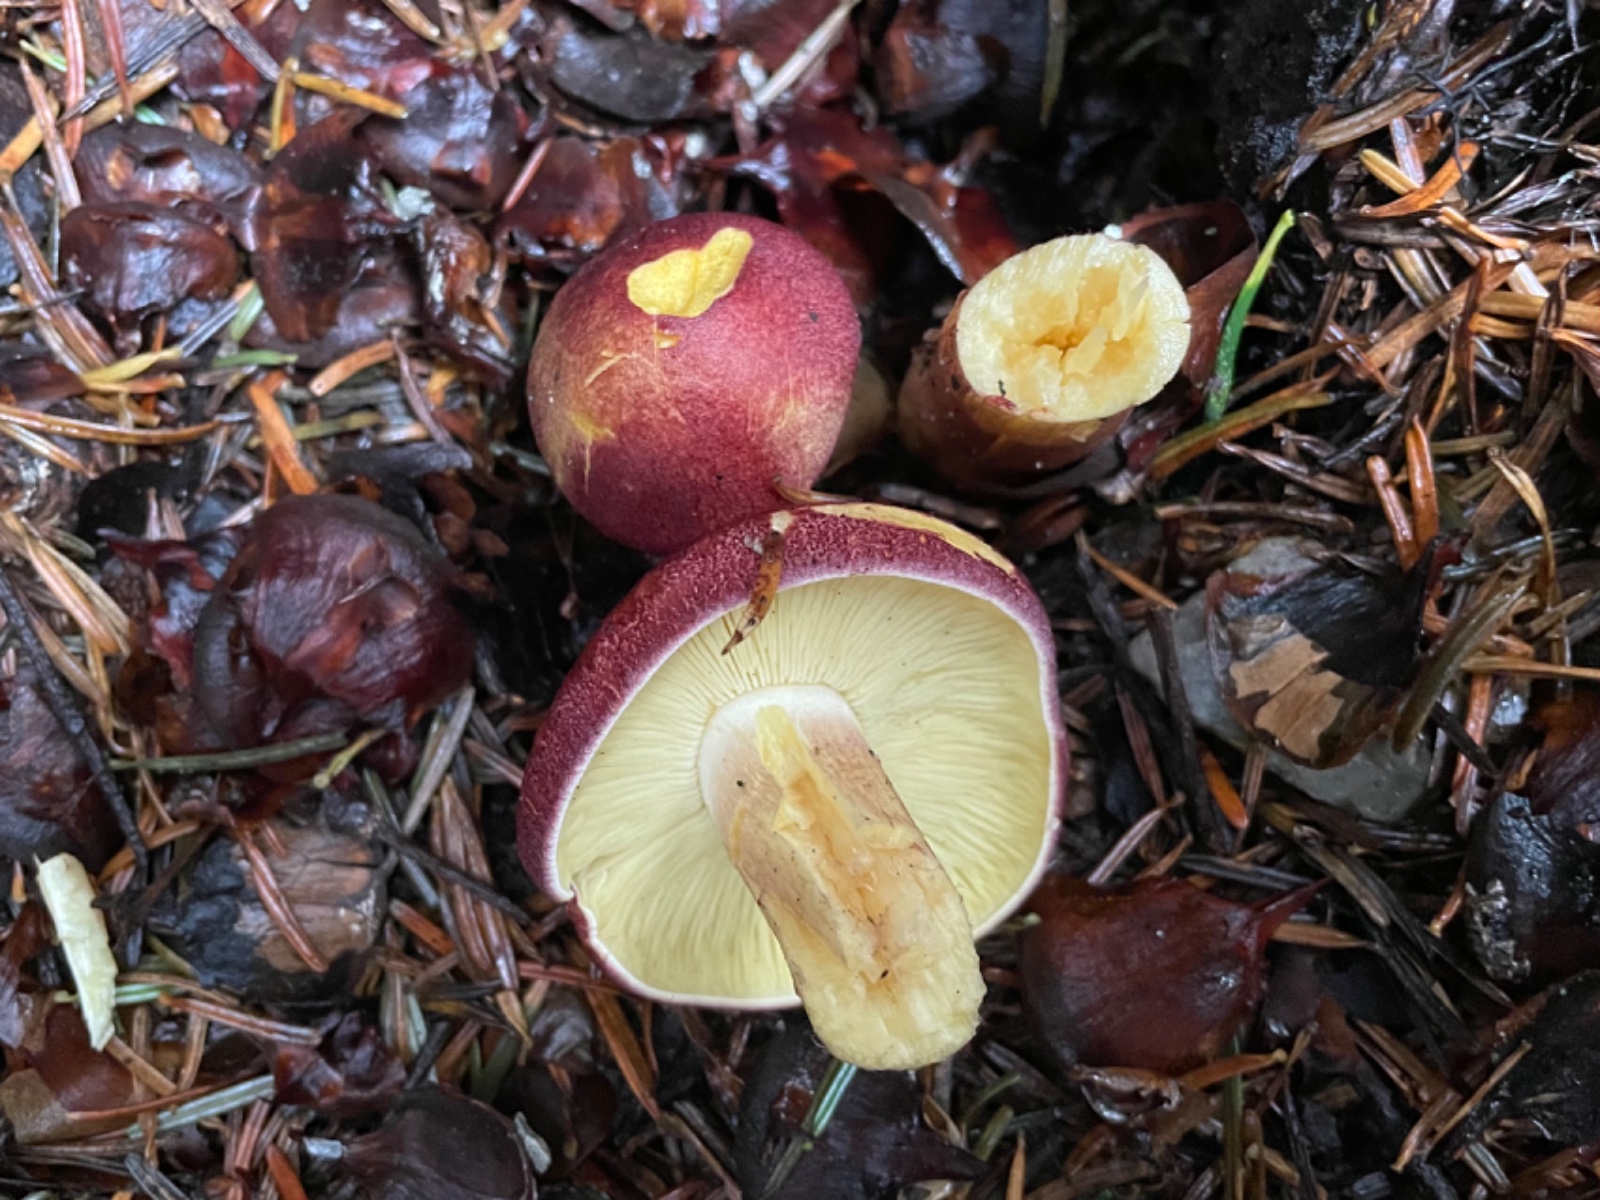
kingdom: Fungi
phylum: Basidiomycota
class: Agaricomycetes
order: Agaricales
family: Tricholomataceae
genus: Tricholomopsis
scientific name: Tricholomopsis rutilans
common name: purpur-væbnerhat
